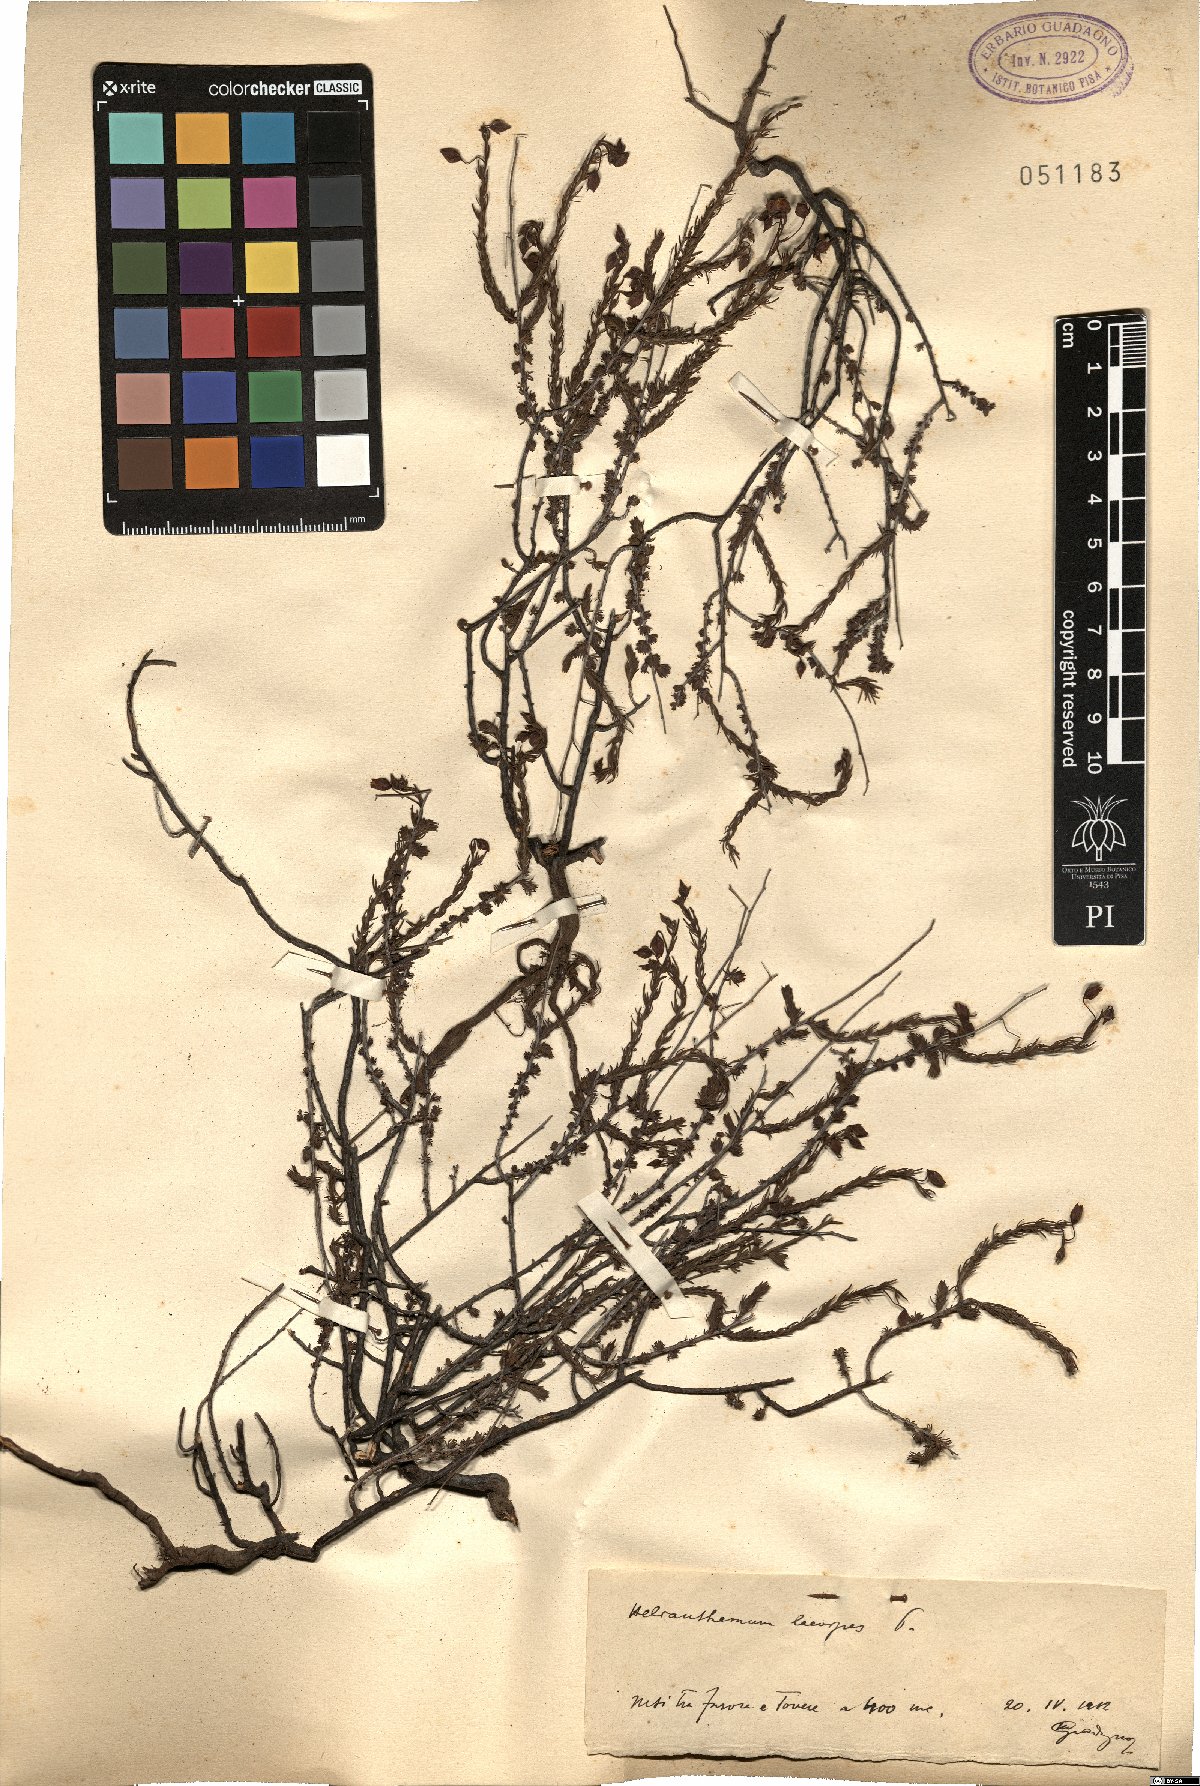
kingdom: Plantae
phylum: Tracheophyta
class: Magnoliopsida
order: Malvales
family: Cistaceae
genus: Fumana
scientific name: Fumana laevipes
